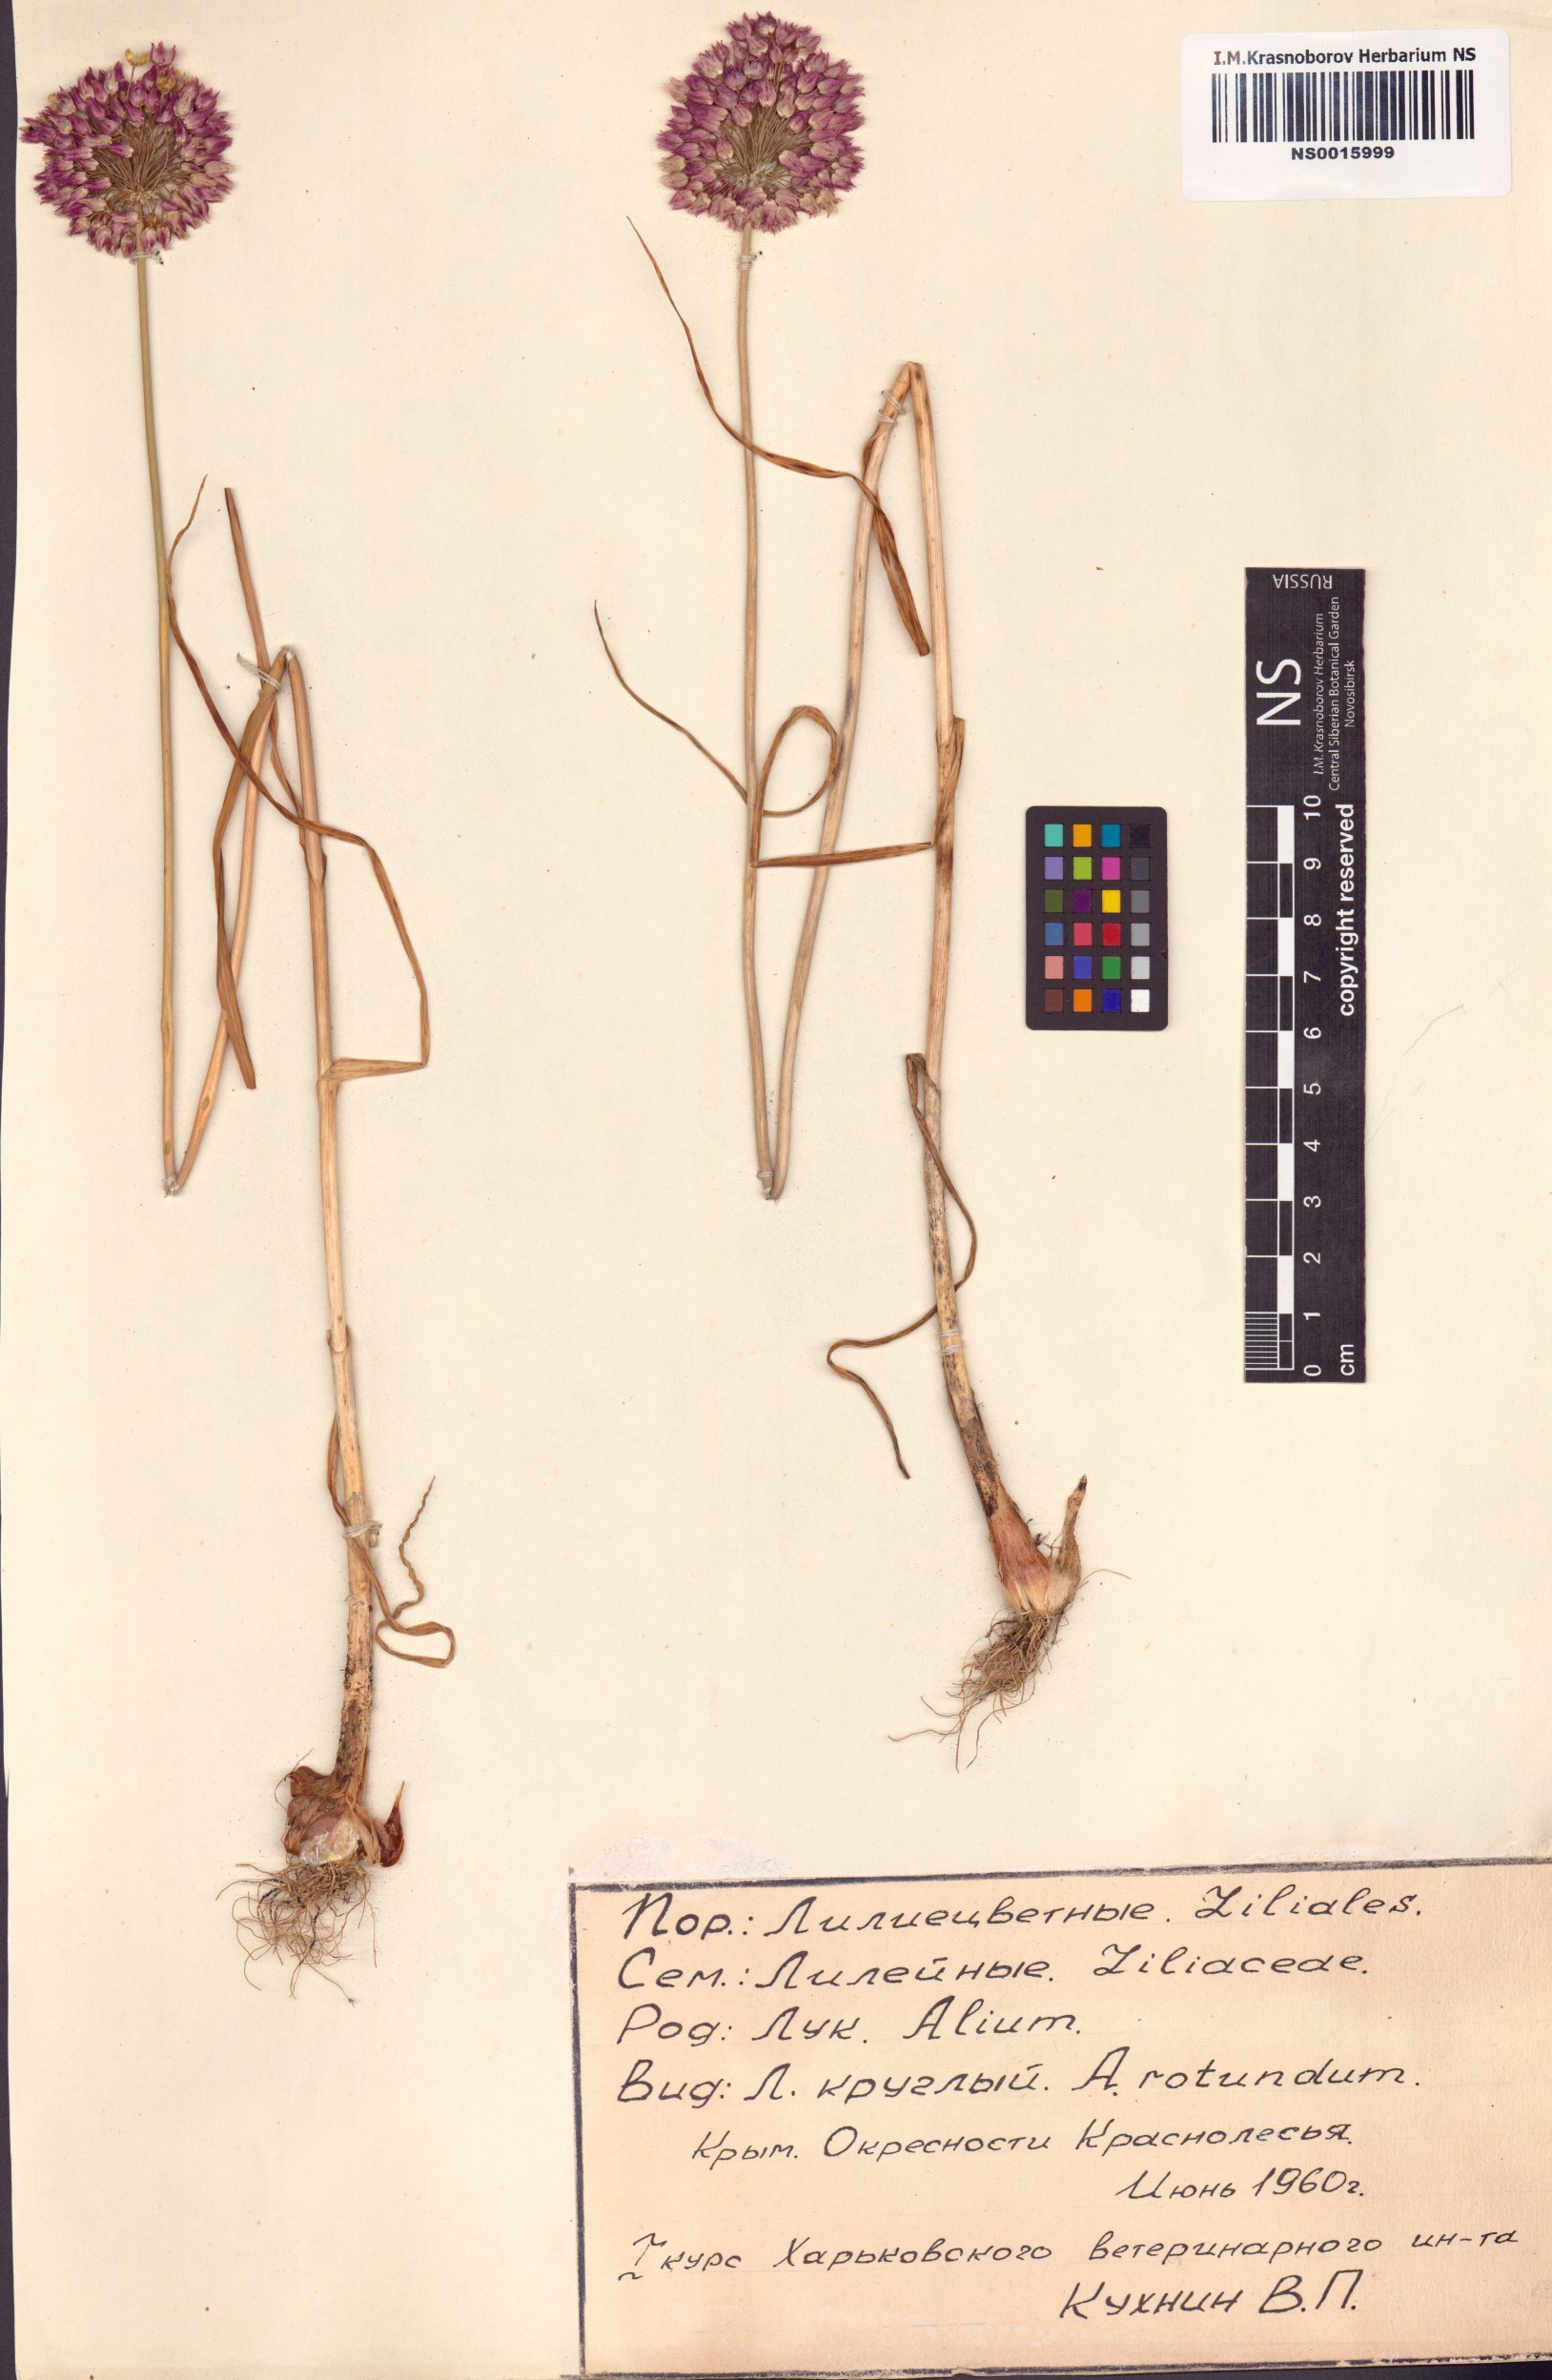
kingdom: Plantae
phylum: Tracheophyta
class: Liliopsida
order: Asparagales
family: Amaryllidaceae
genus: Allium
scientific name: Allium rotundum
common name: Sand leek
